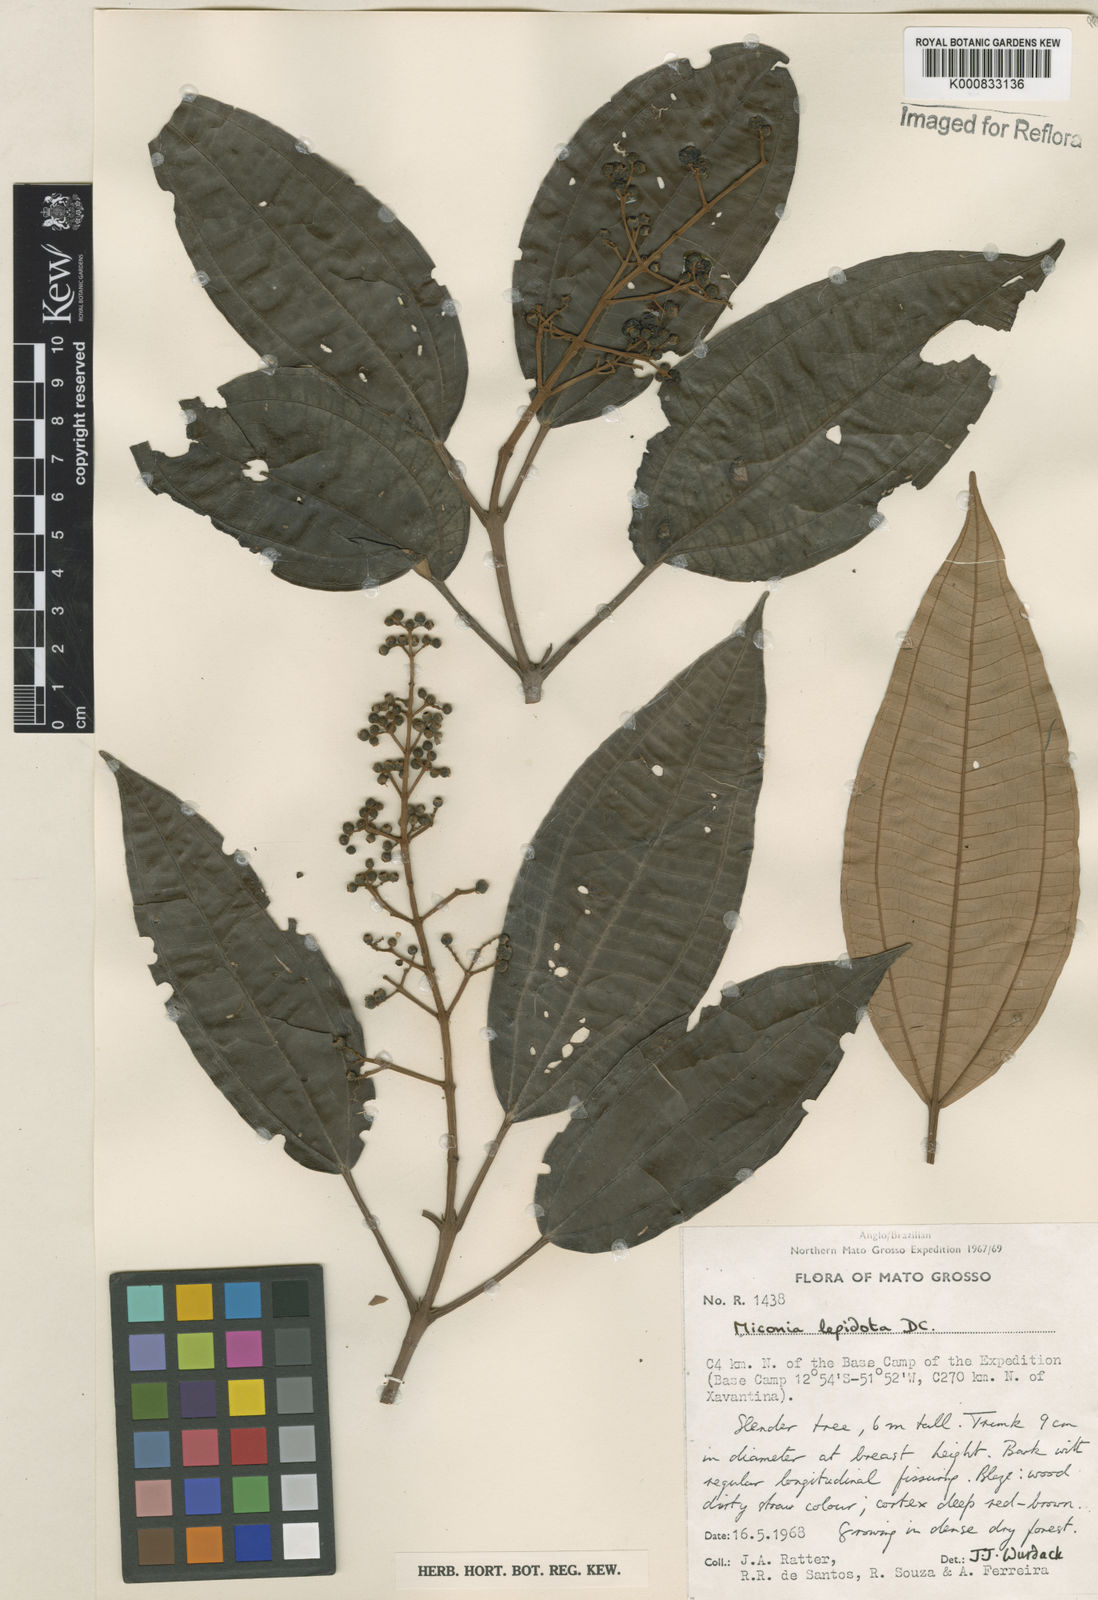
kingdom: Plantae
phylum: Tracheophyta
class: Magnoliopsida
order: Myrtales
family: Melastomataceae
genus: Miconia
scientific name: Miconia lepidota
